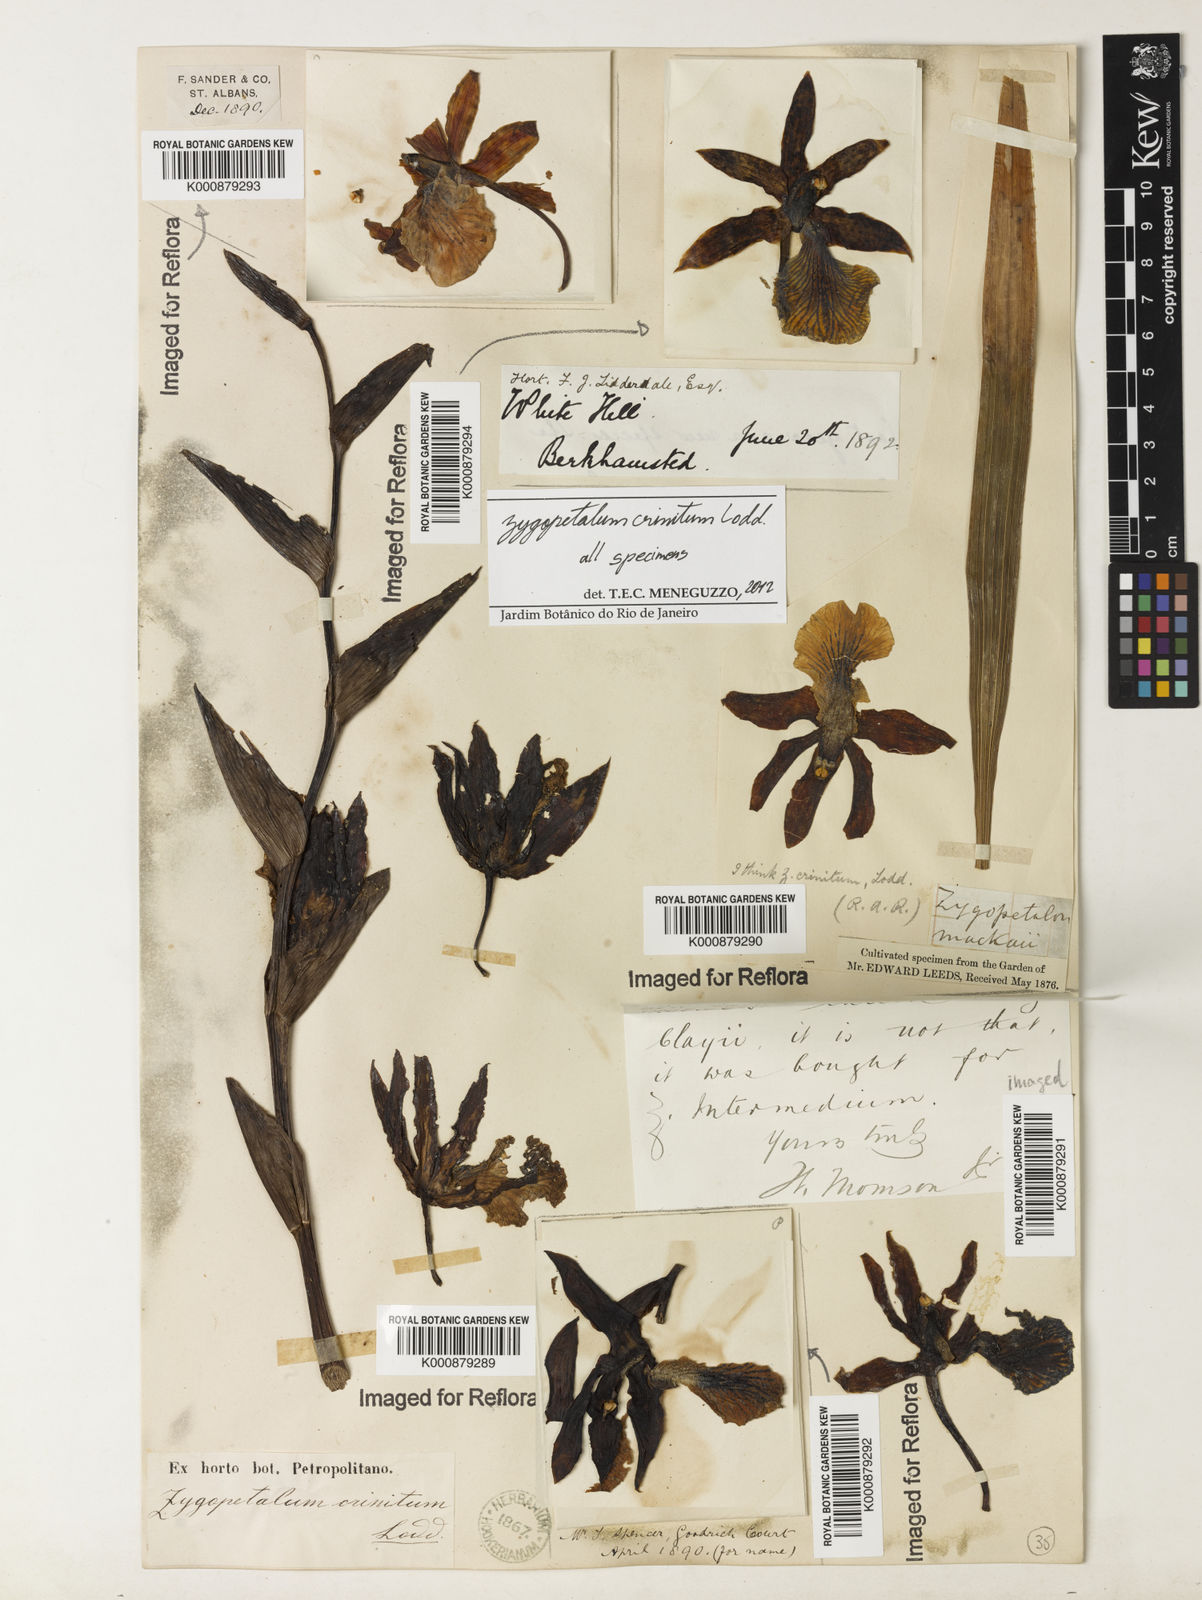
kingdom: Plantae
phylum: Tracheophyta
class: Liliopsida
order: Asparagales
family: Orchidaceae
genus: Zygopetalum
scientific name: Zygopetalum crinitum
